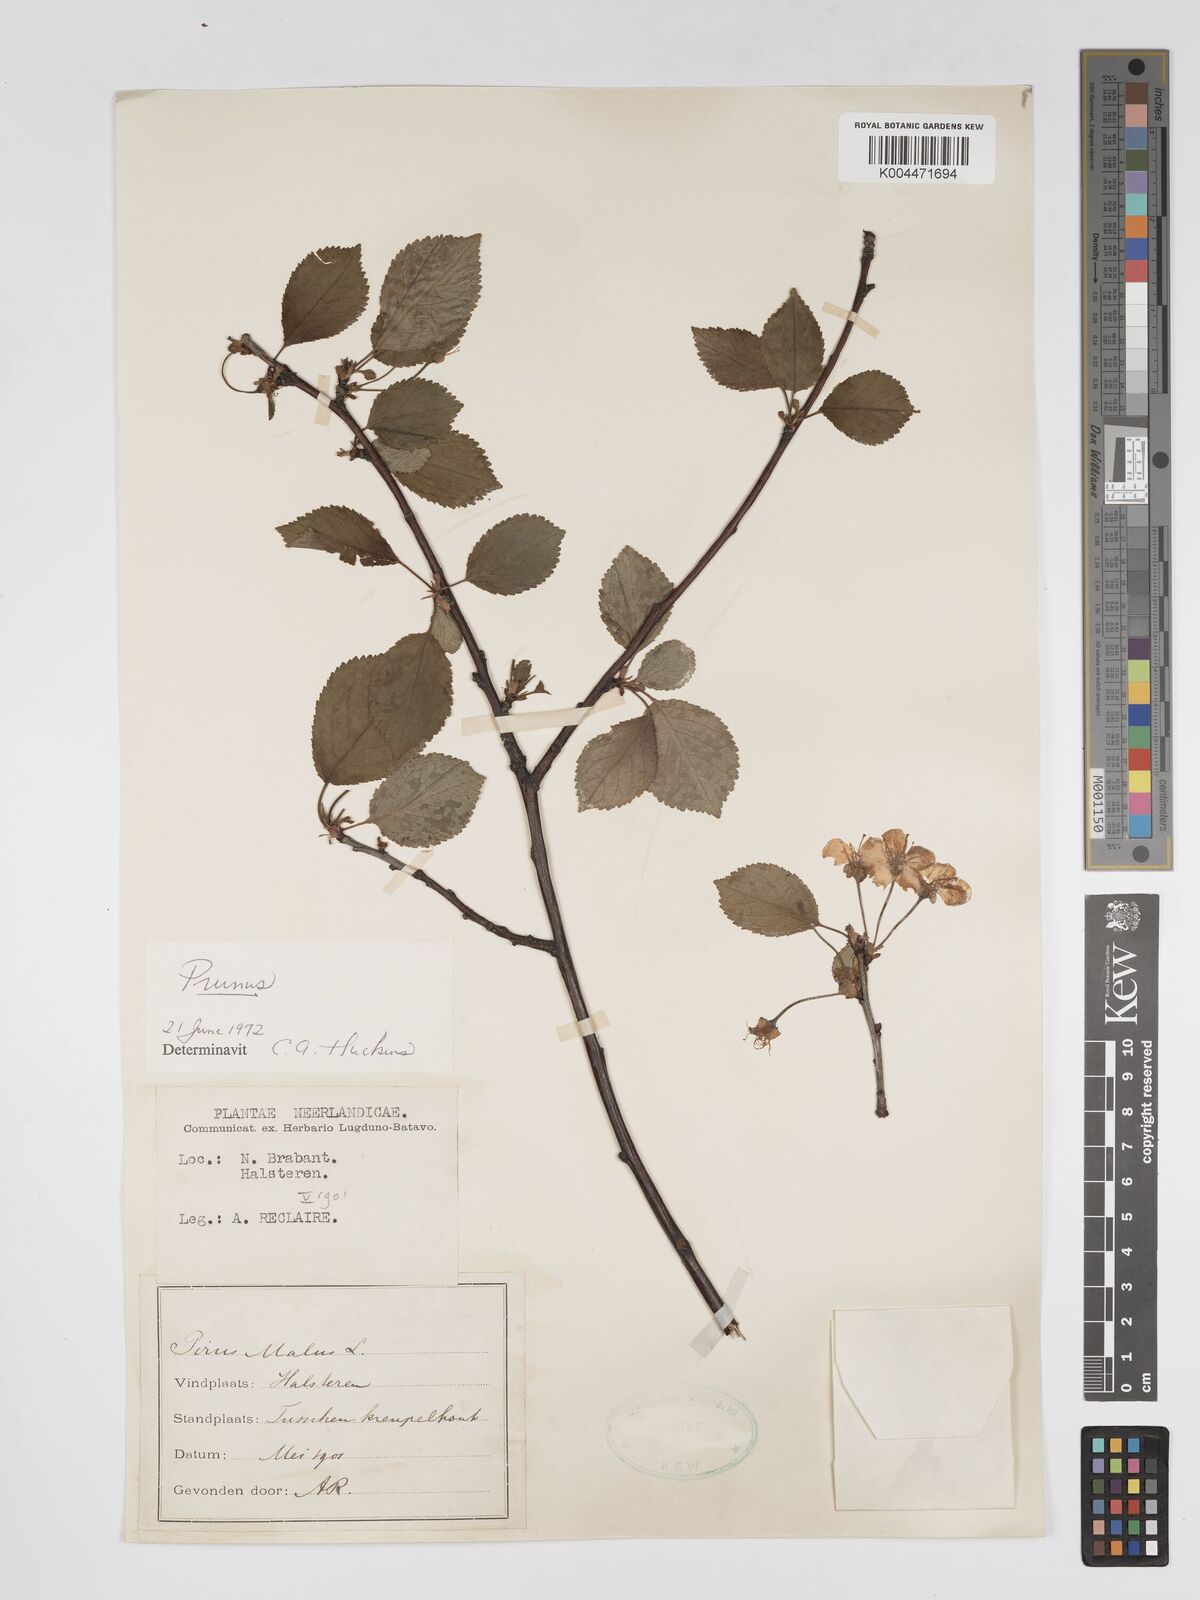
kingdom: Plantae
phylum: Tracheophyta
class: Magnoliopsida
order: Rosales
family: Rosaceae
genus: Prunus
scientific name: Prunus
